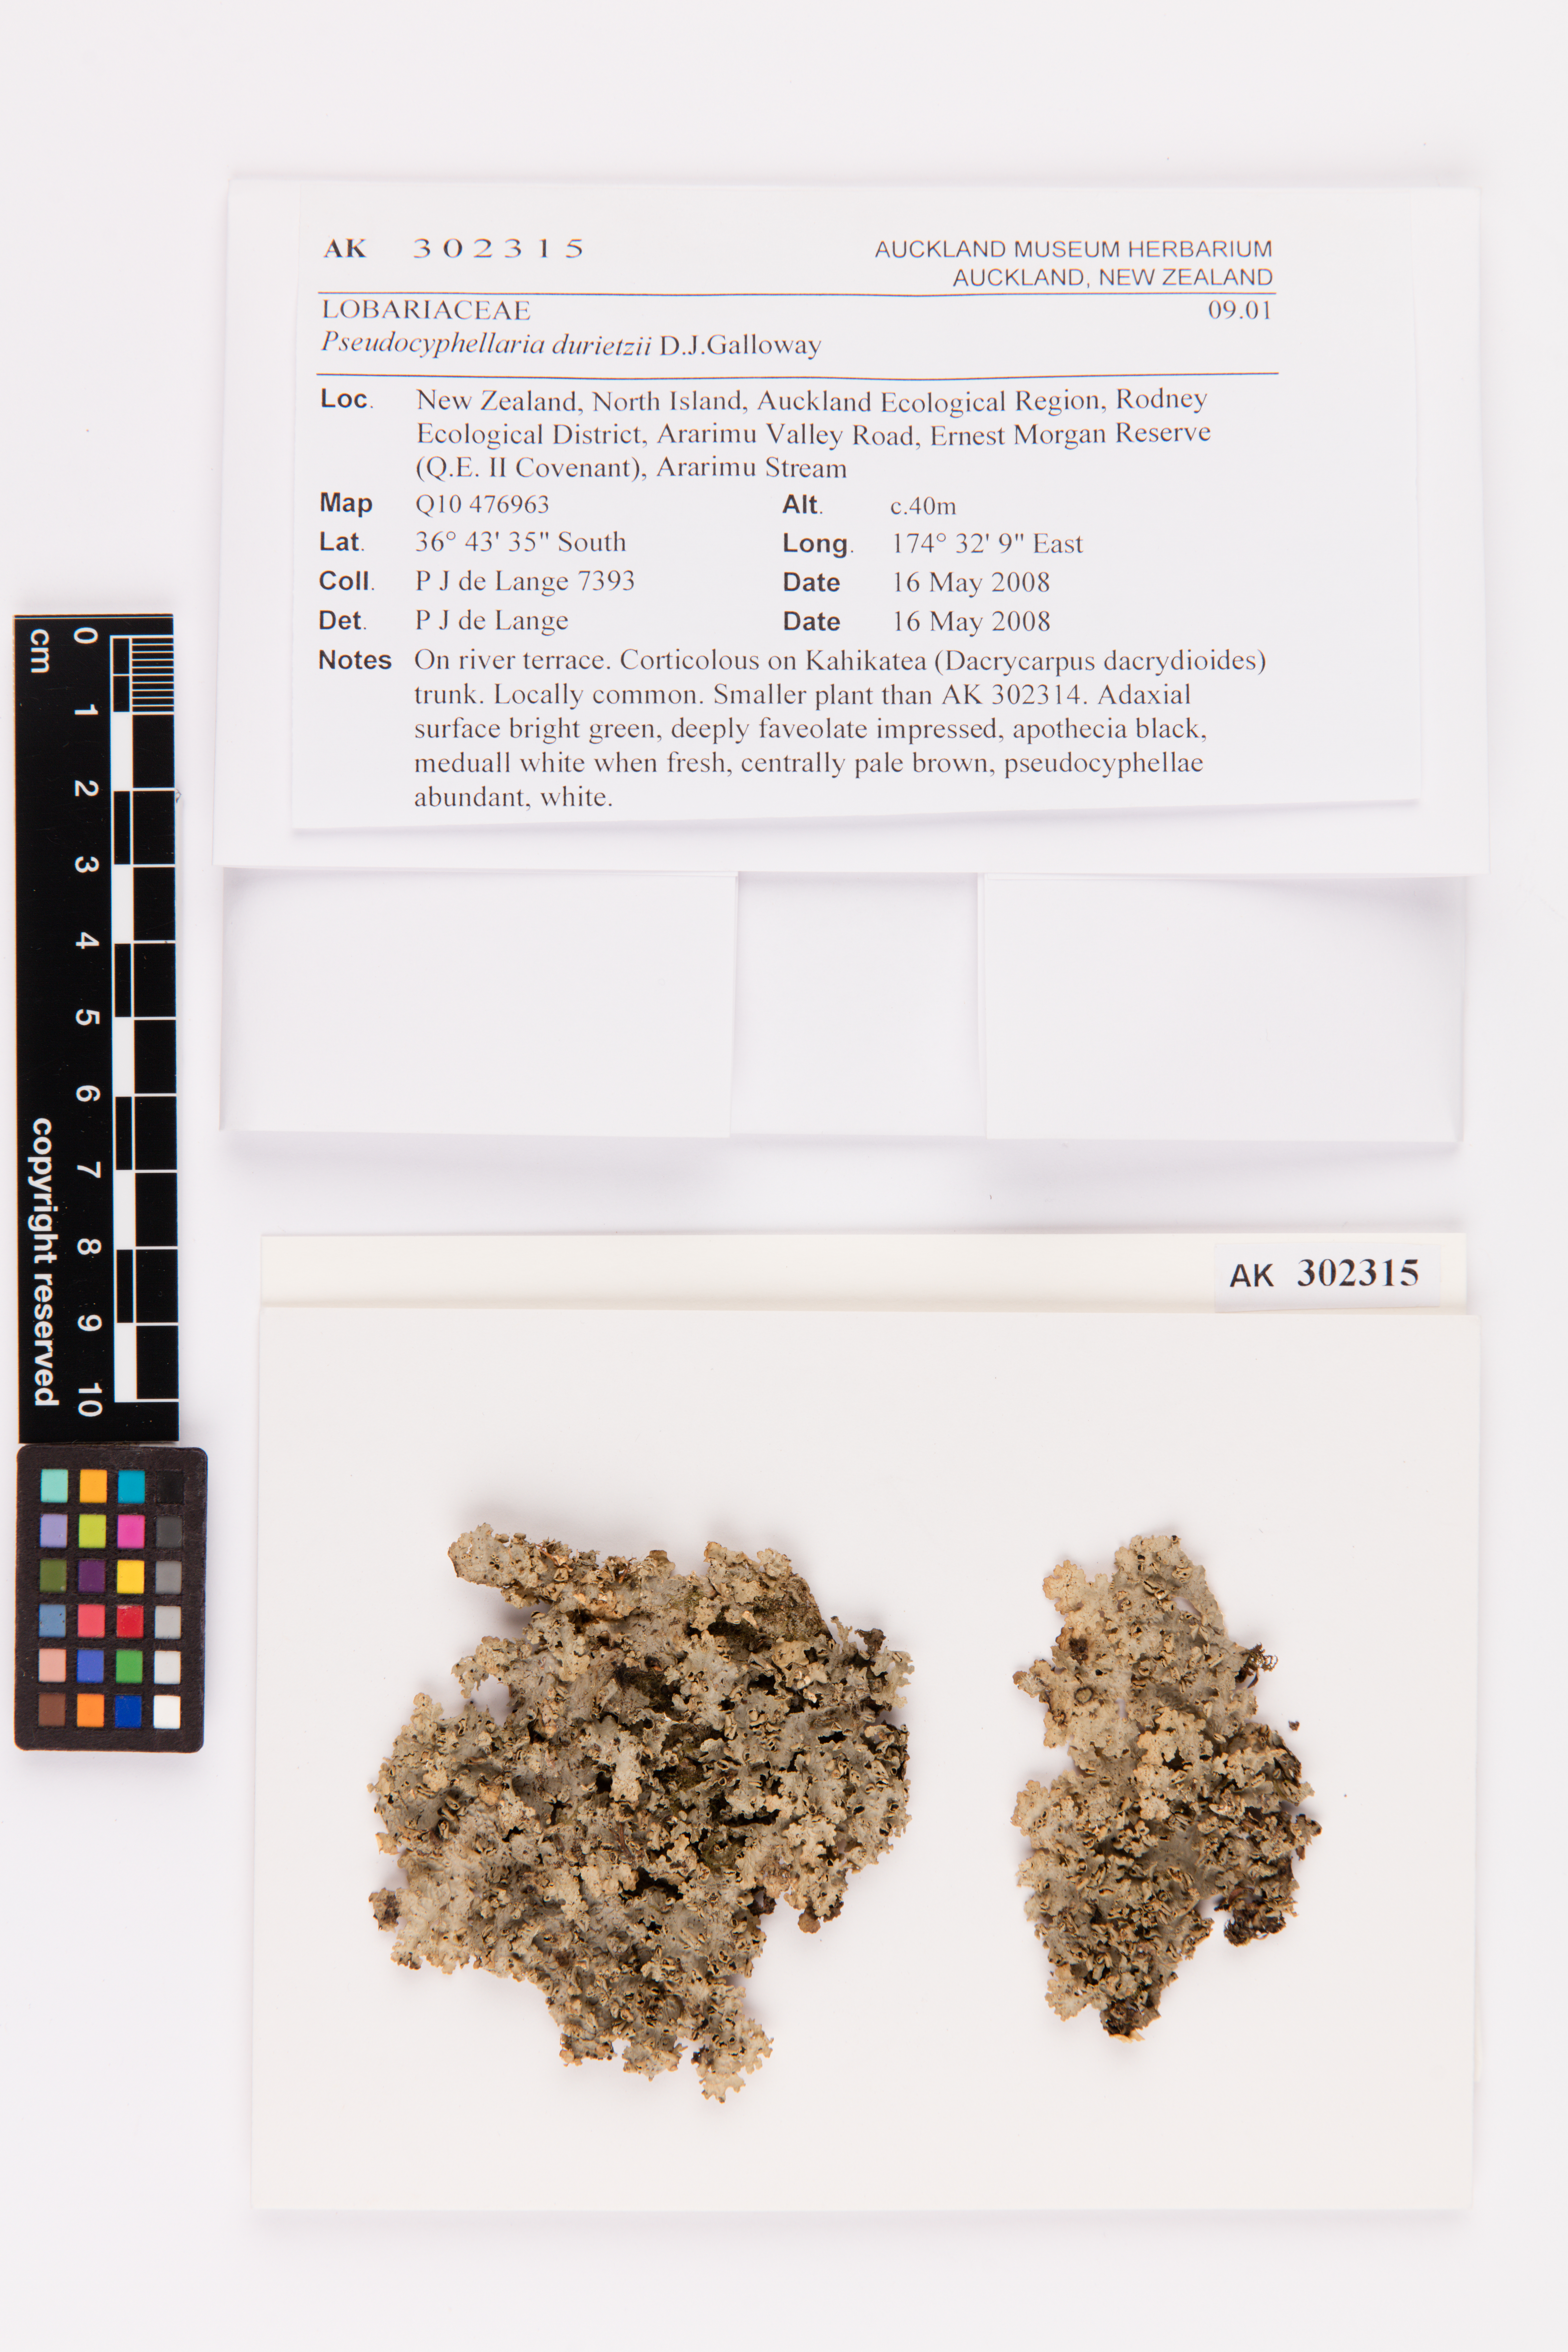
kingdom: Fungi
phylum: Ascomycota
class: Lecanoromycetes
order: Peltigerales
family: Lobariaceae
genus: Pseudocyphellaria
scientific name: Pseudocyphellaria durietzii
